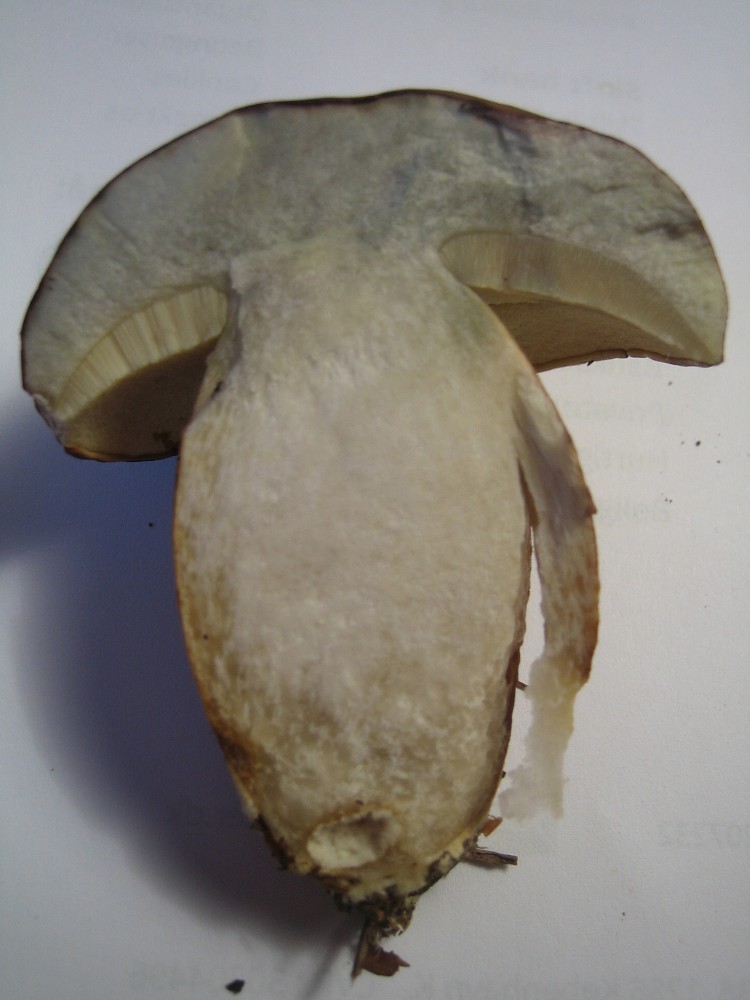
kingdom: Fungi
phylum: Basidiomycota
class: Agaricomycetes
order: Boletales
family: Boletaceae
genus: Imleria
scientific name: Imleria badia
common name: brunstokket rørhat
